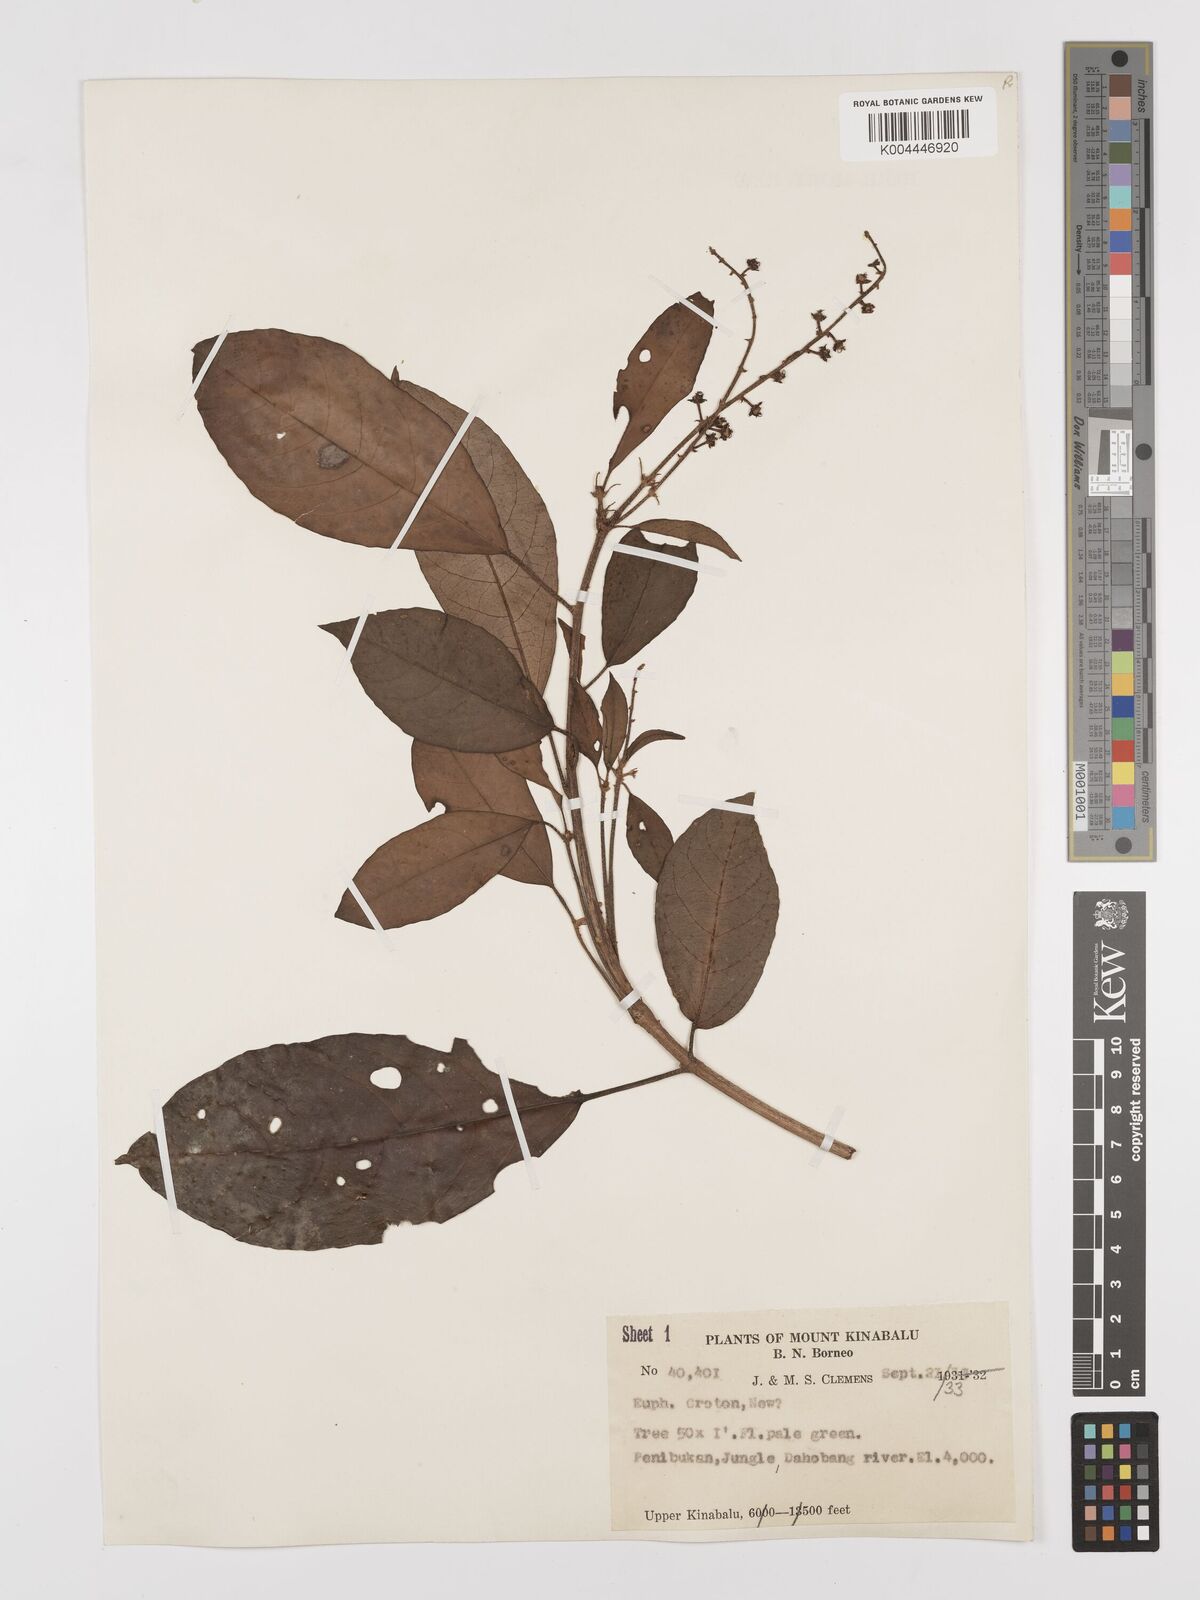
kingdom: Plantae
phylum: Tracheophyta
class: Magnoliopsida
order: Malpighiales
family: Euphorbiaceae
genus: Croton
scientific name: Croton
